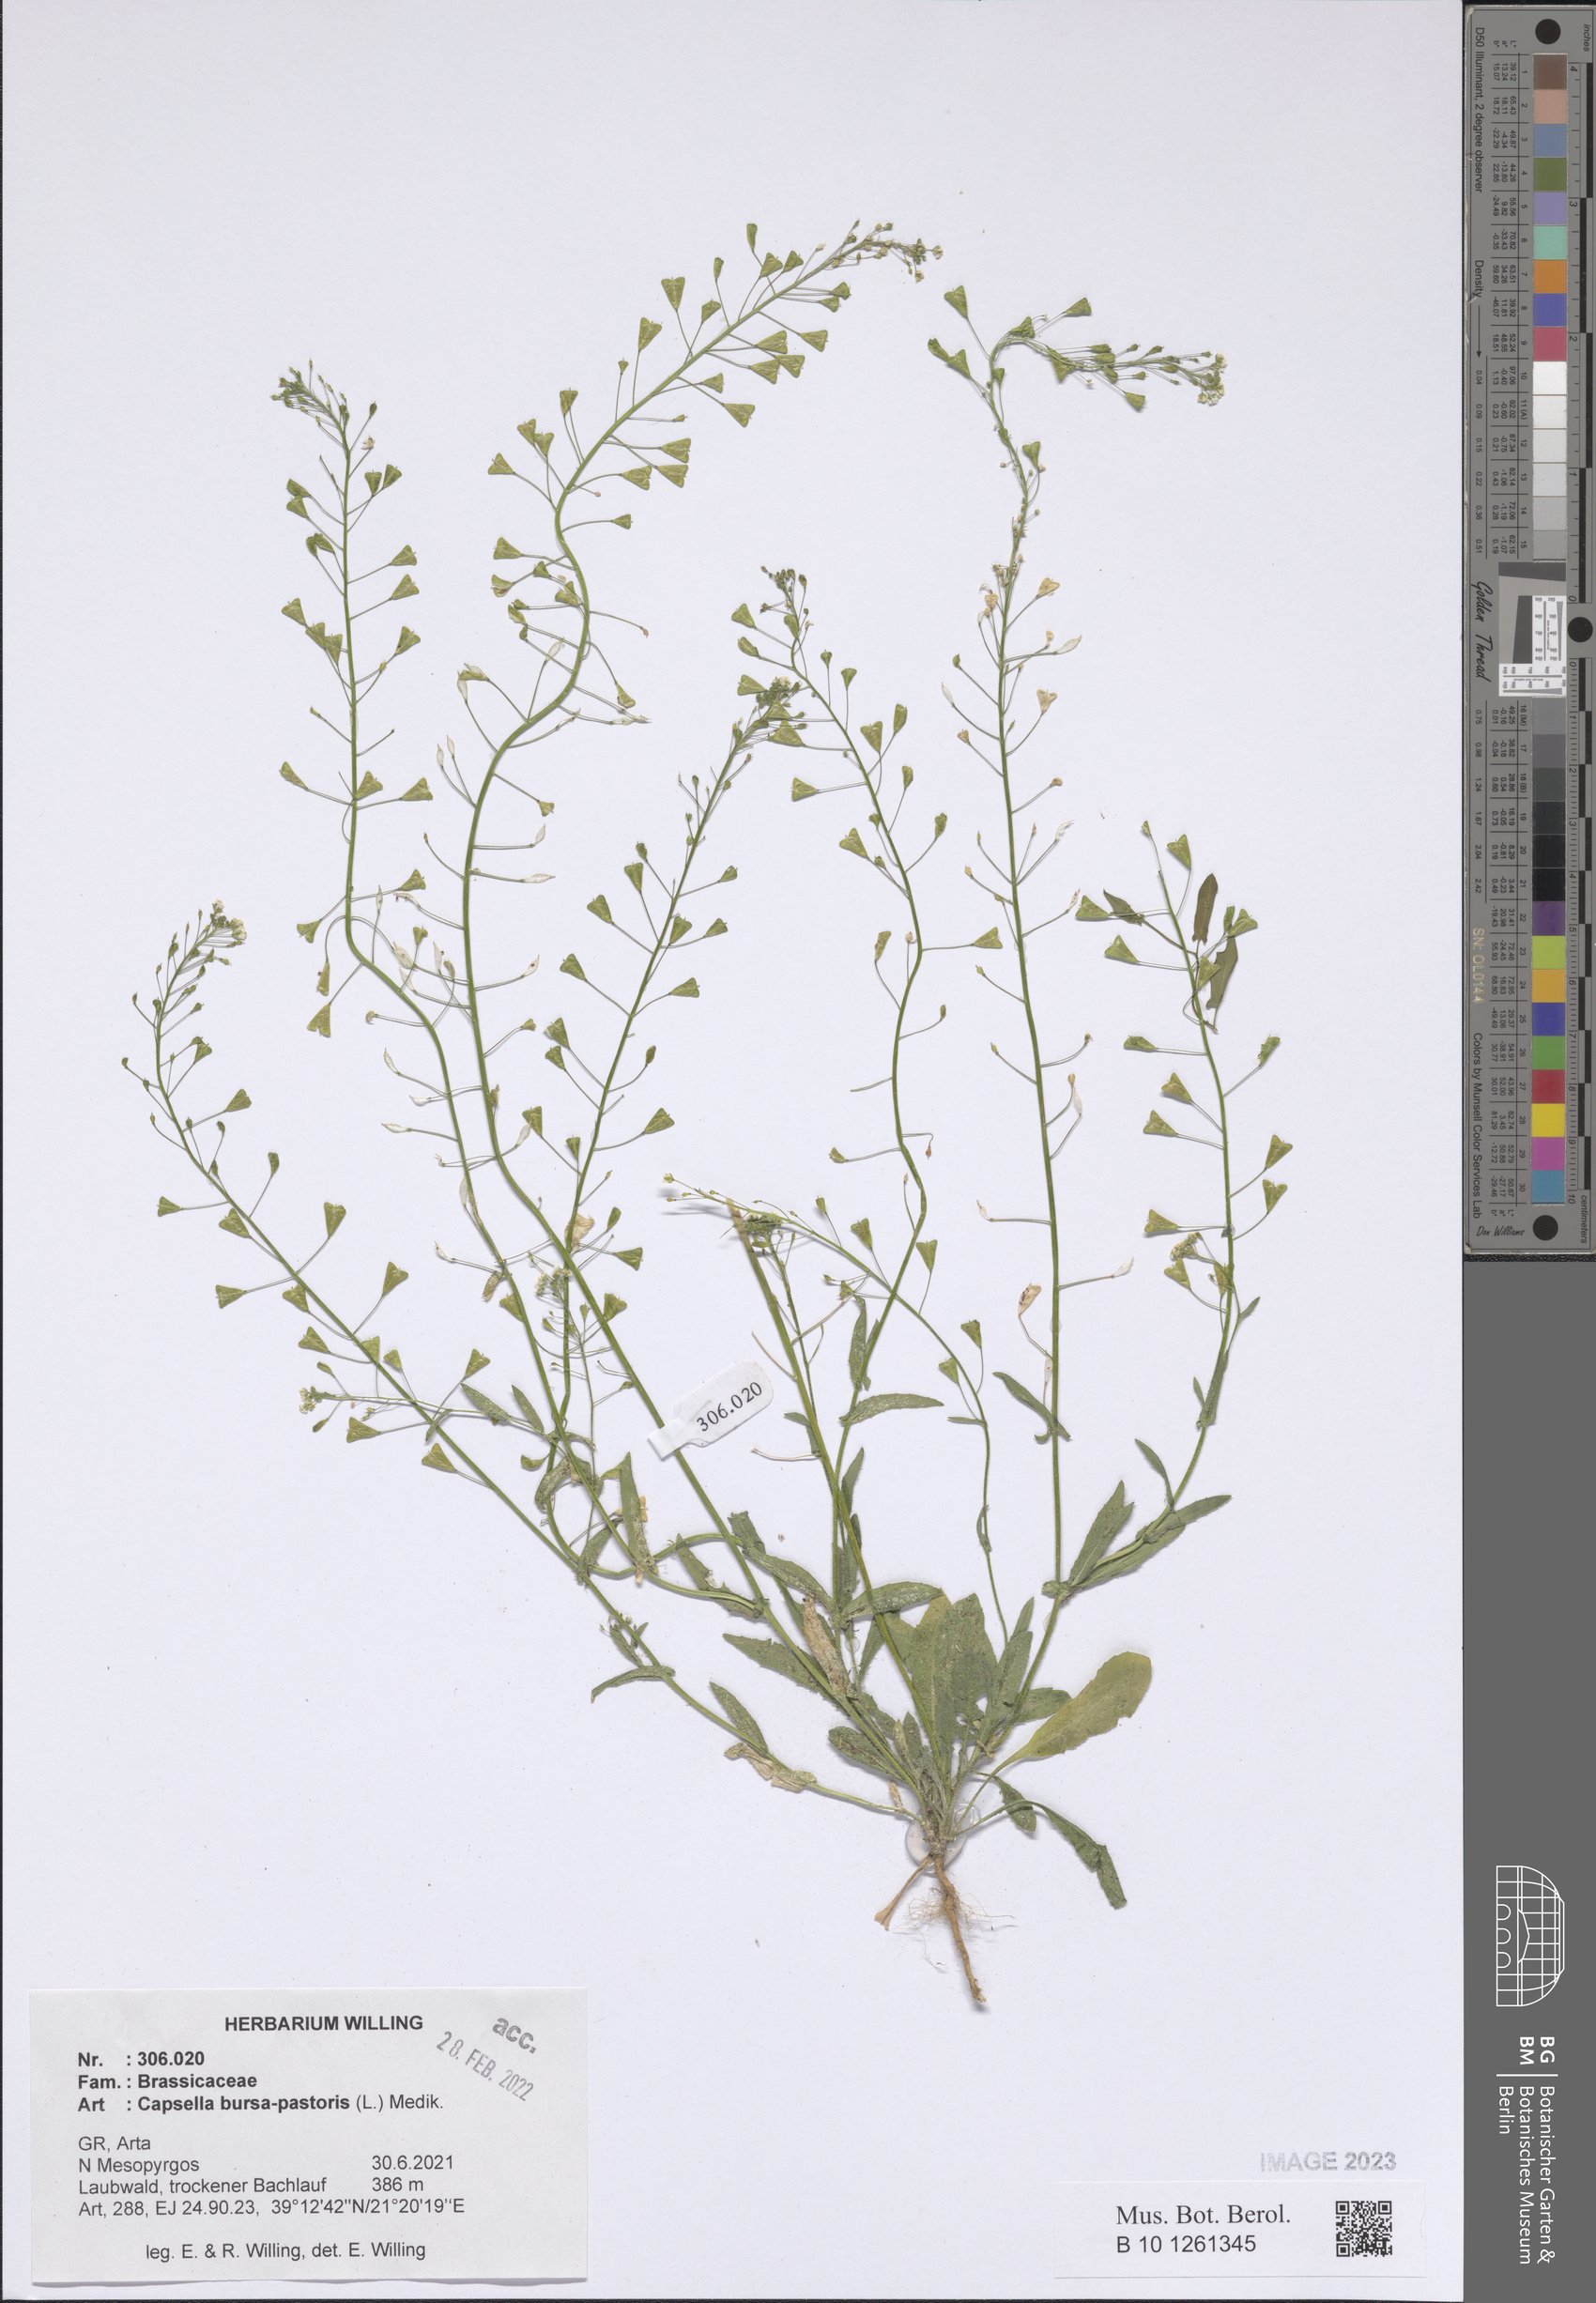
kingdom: Plantae
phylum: Tracheophyta
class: Magnoliopsida
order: Brassicales
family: Brassicaceae
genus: Capsella
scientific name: Capsella bursa-pastoris
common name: Shepherd's purse
